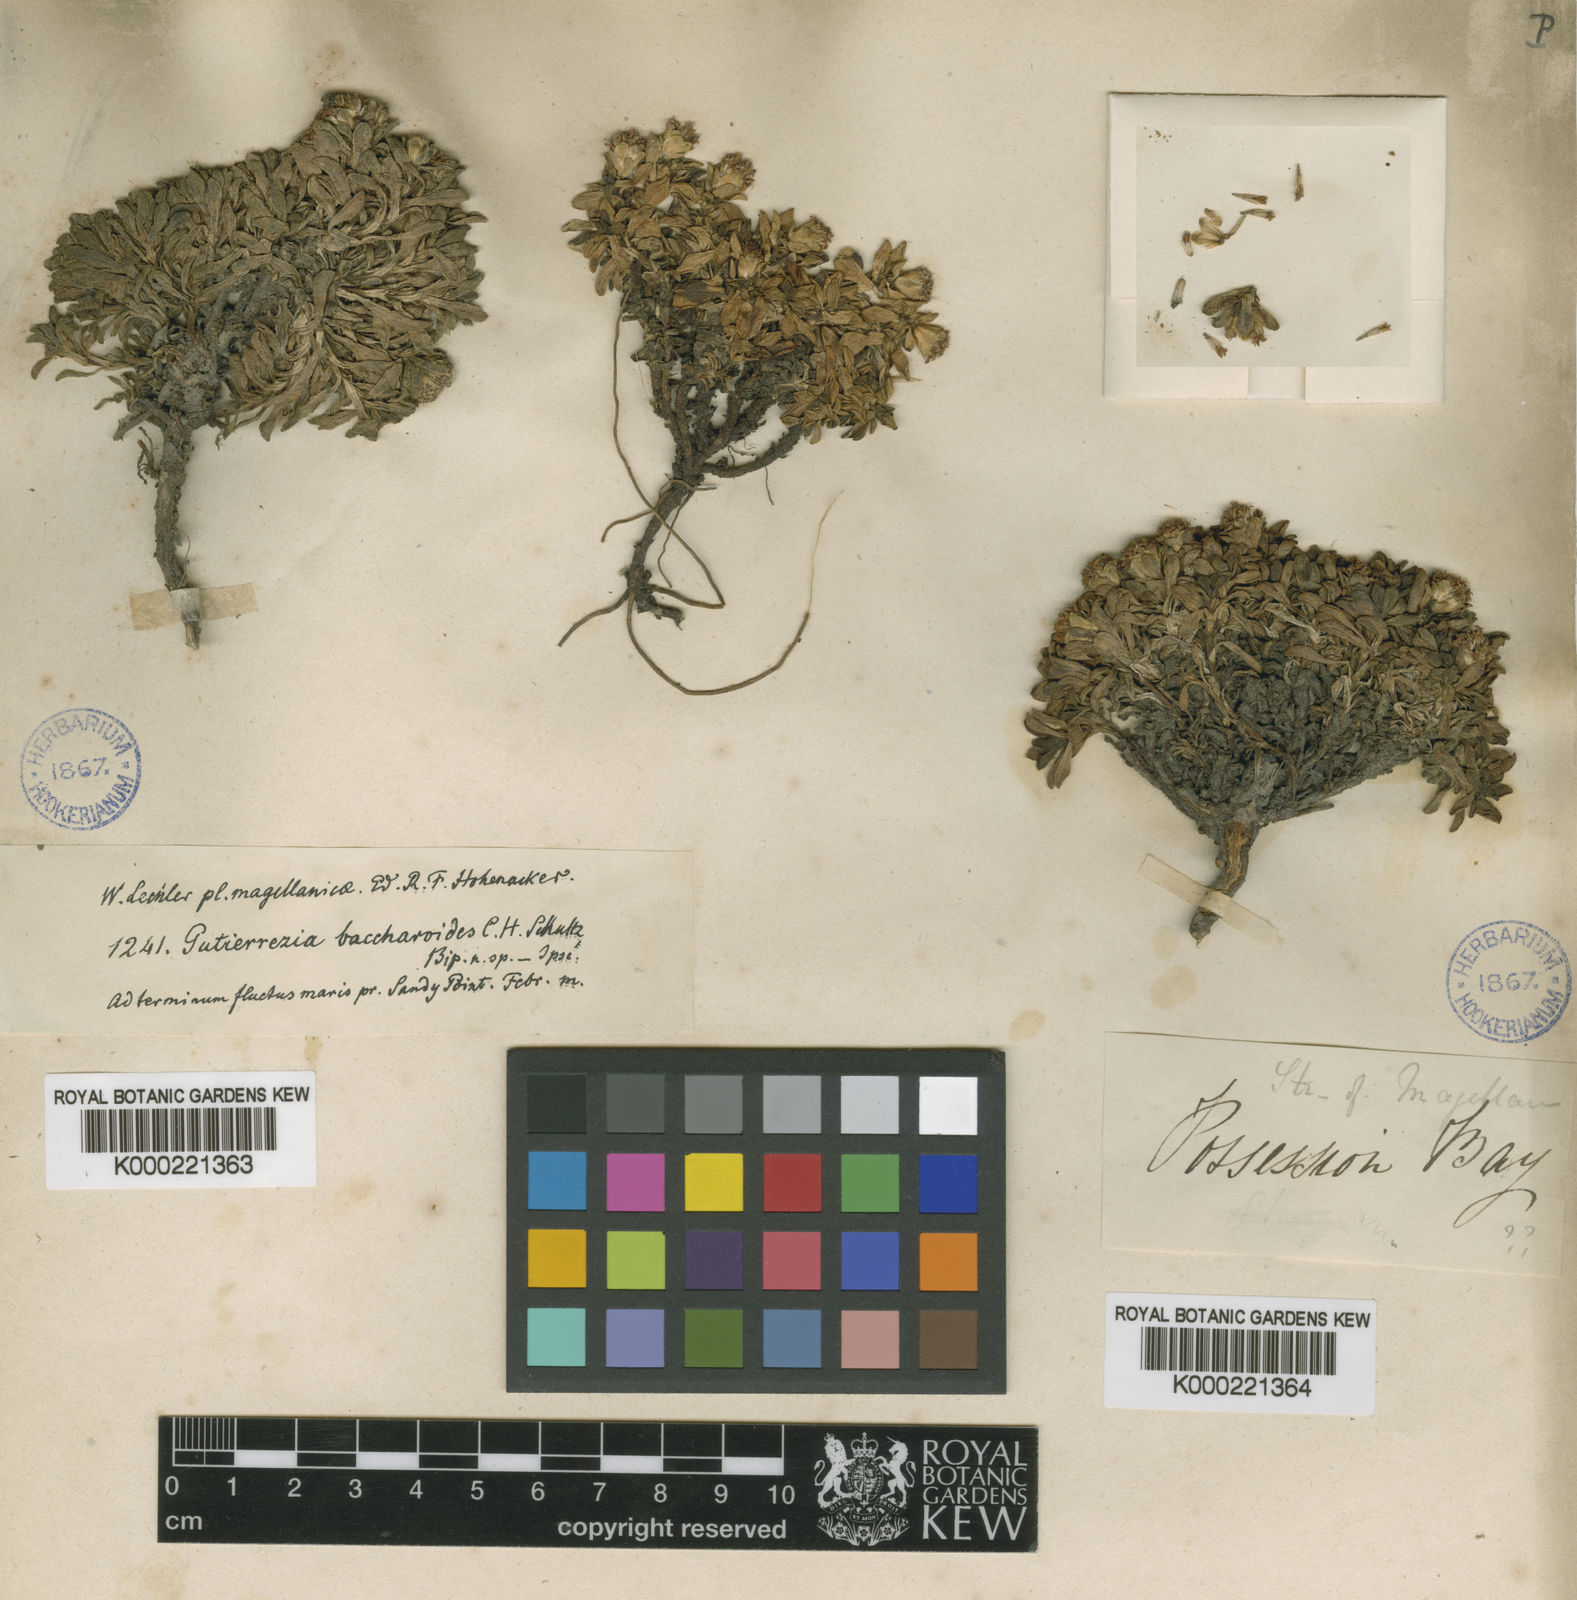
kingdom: Plantae
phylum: Tracheophyta
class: Magnoliopsida
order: Asterales
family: Asteraceae
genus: Gutierrezia
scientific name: Gutierrezia baccharoides
